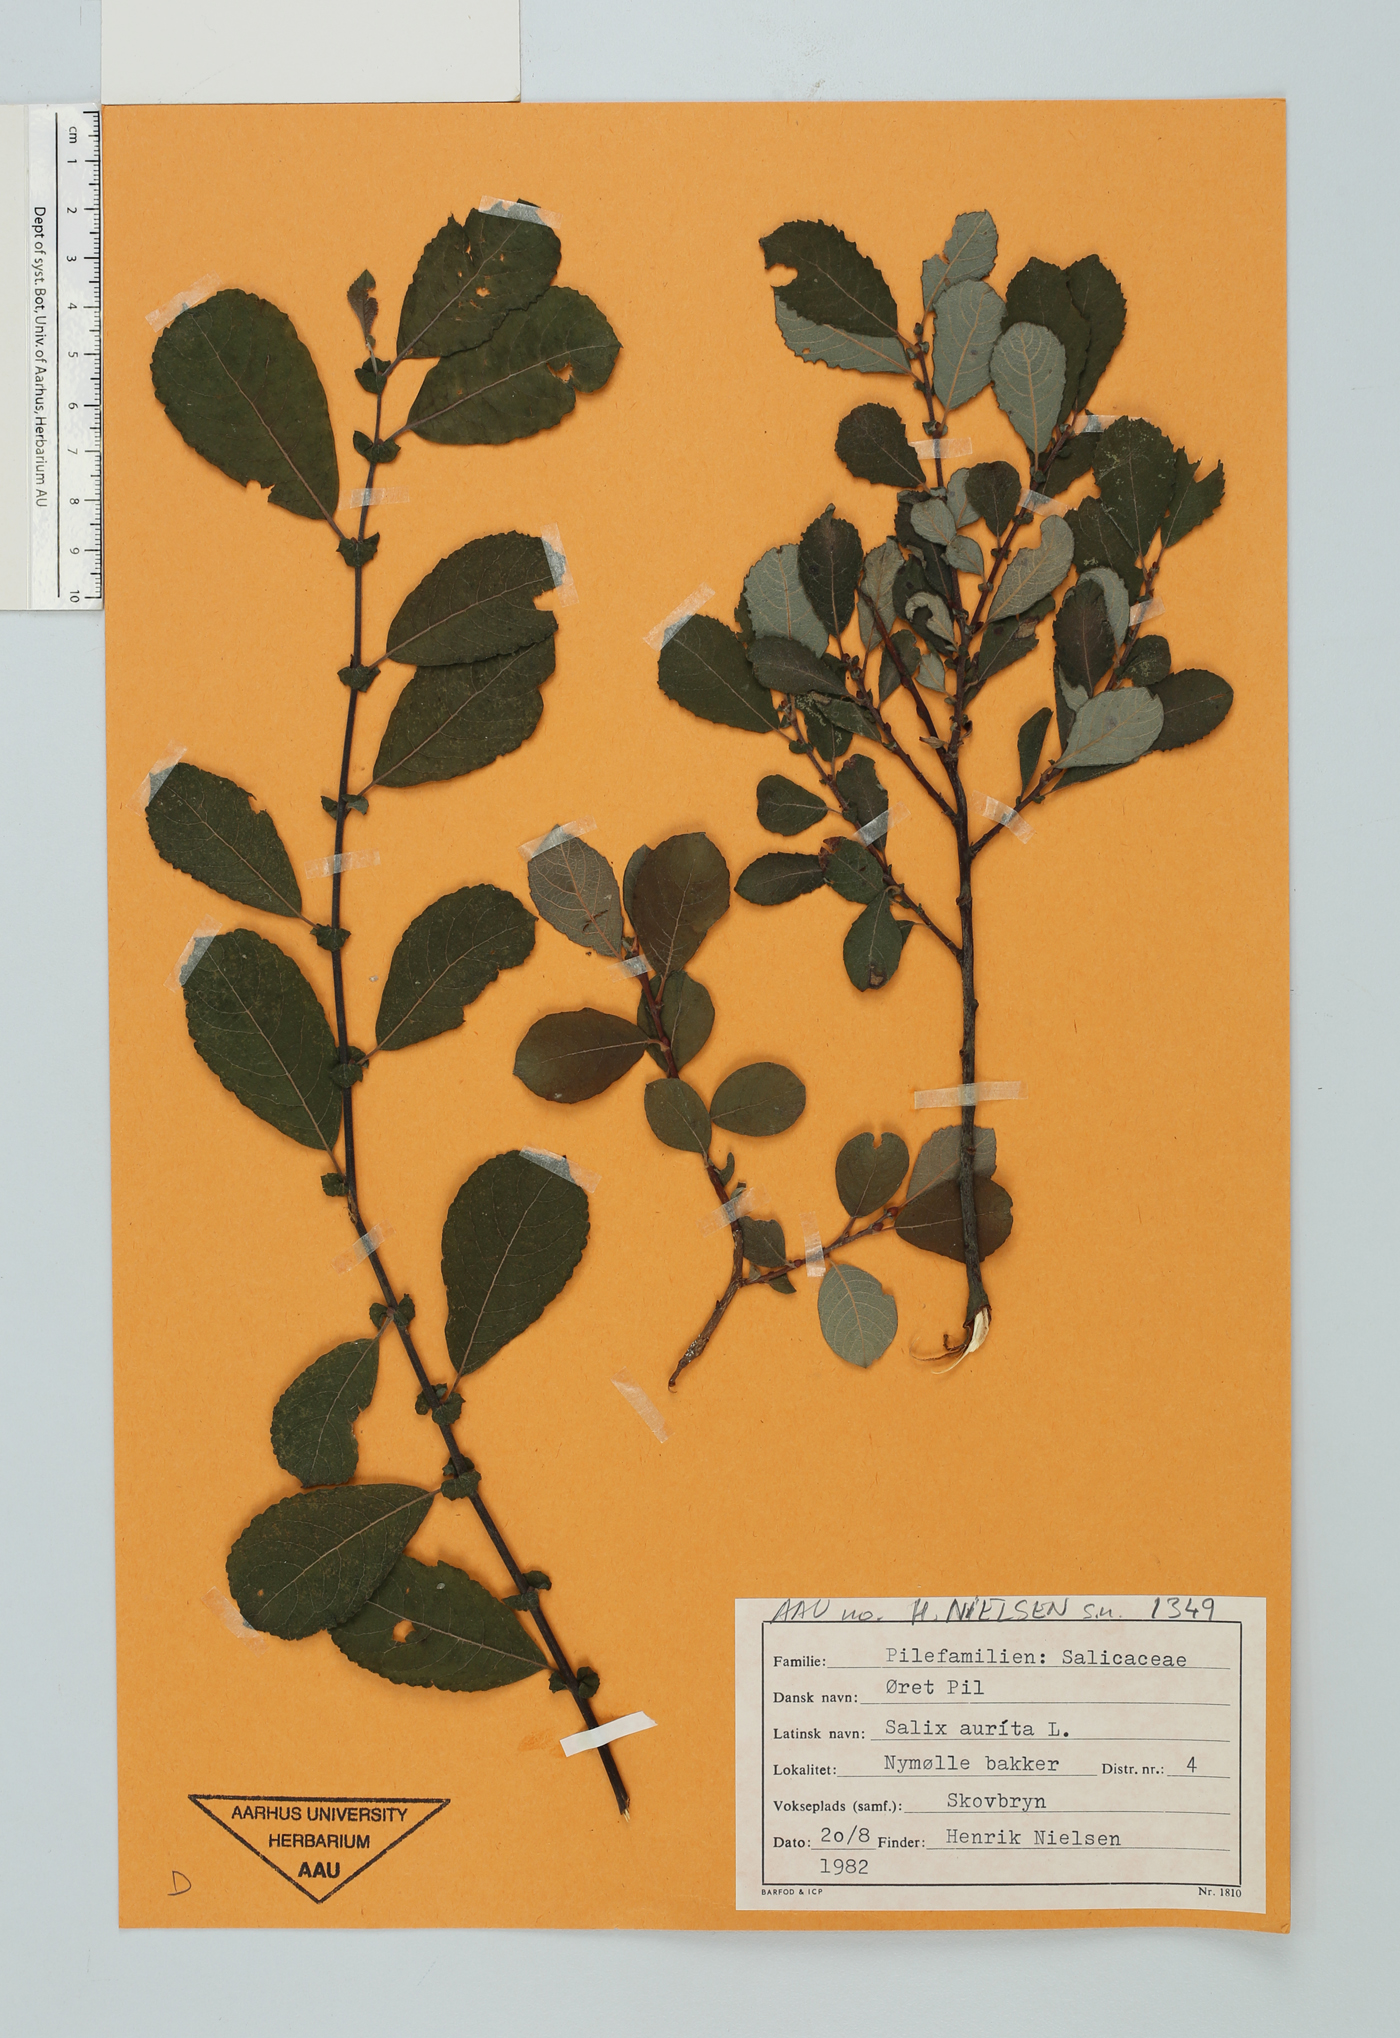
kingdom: Plantae
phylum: Tracheophyta
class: Magnoliopsida
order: Malpighiales
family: Salicaceae
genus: Salix
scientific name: Salix aurita
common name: Eared willow
